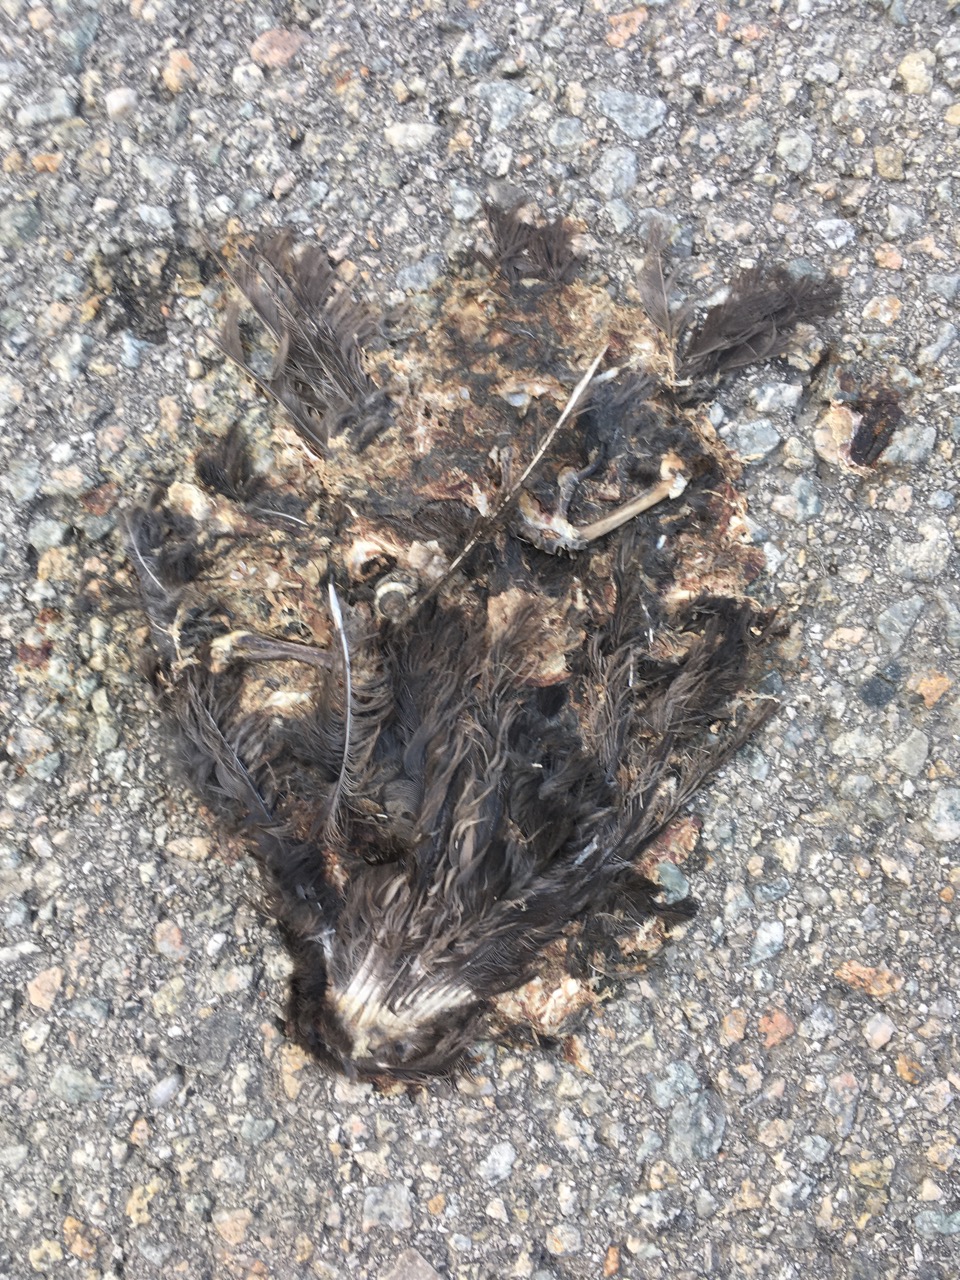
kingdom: Animalia
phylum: Chordata
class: Aves
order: Passeriformes
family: Turdidae
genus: Turdus
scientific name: Turdus merula
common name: Common blackbird
